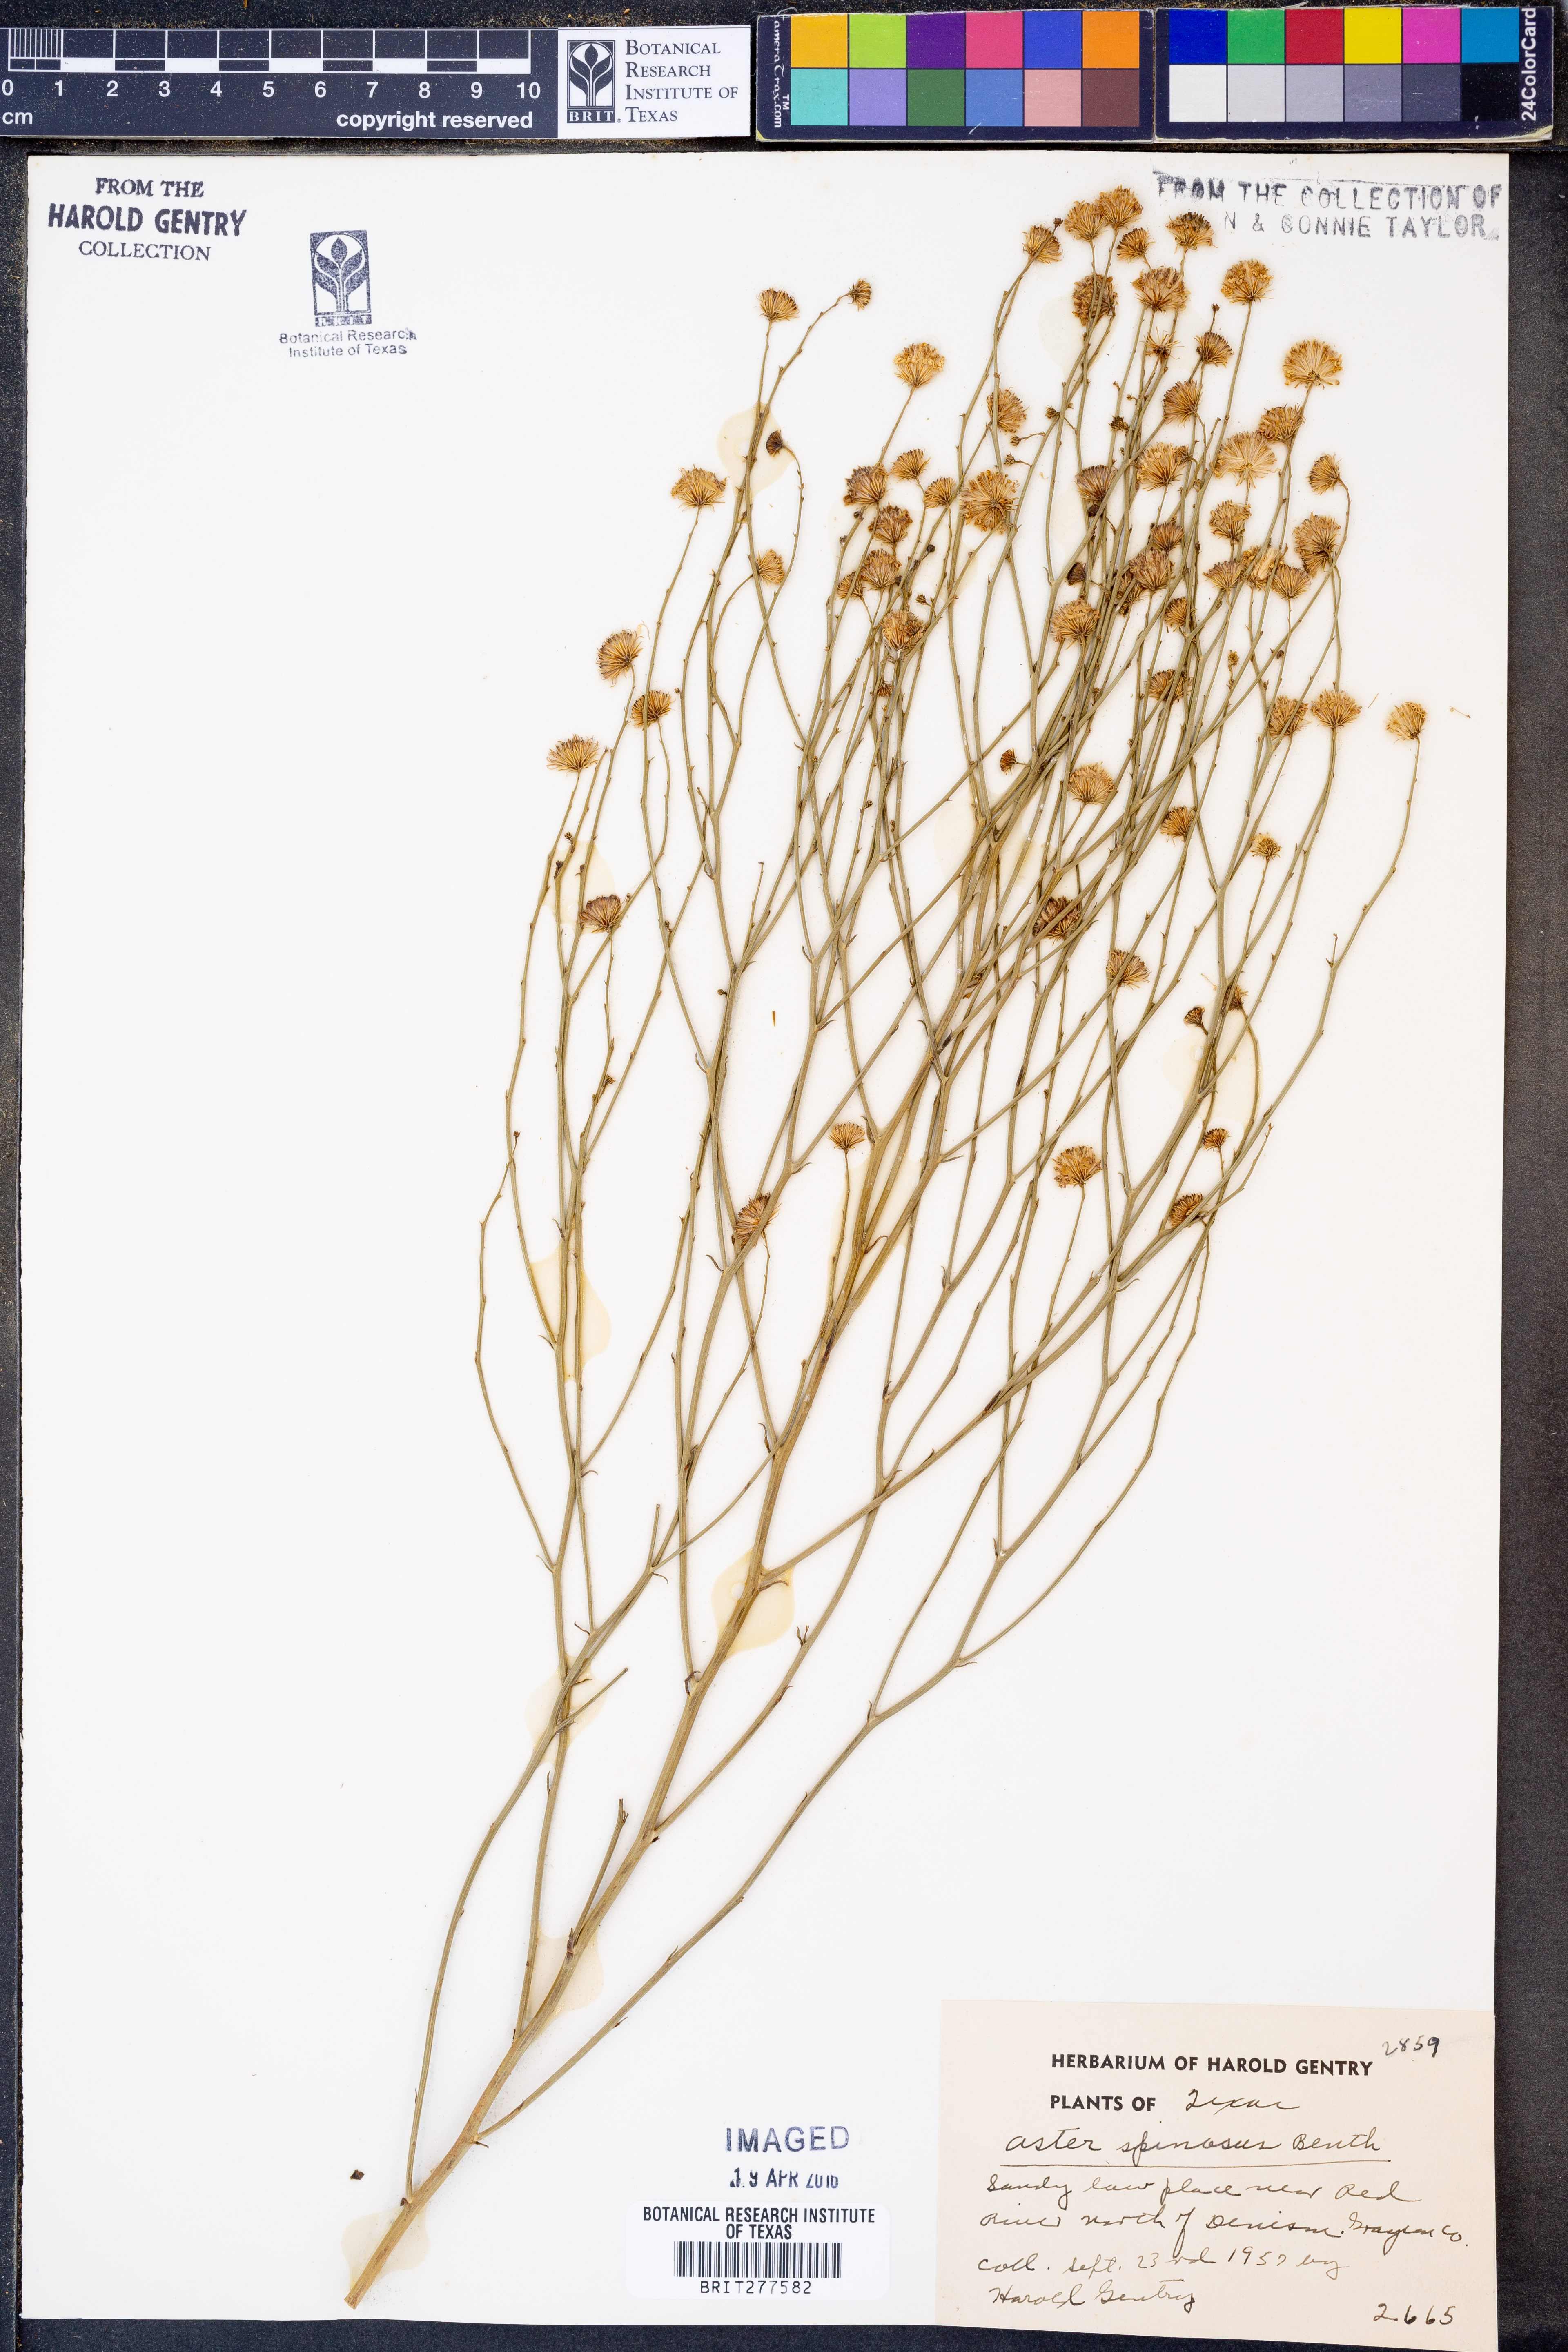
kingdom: Plantae
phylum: Tracheophyta
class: Magnoliopsida
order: Asterales
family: Asteraceae
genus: Chloracantha
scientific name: Chloracantha spinosa
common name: Mexican devilweed
